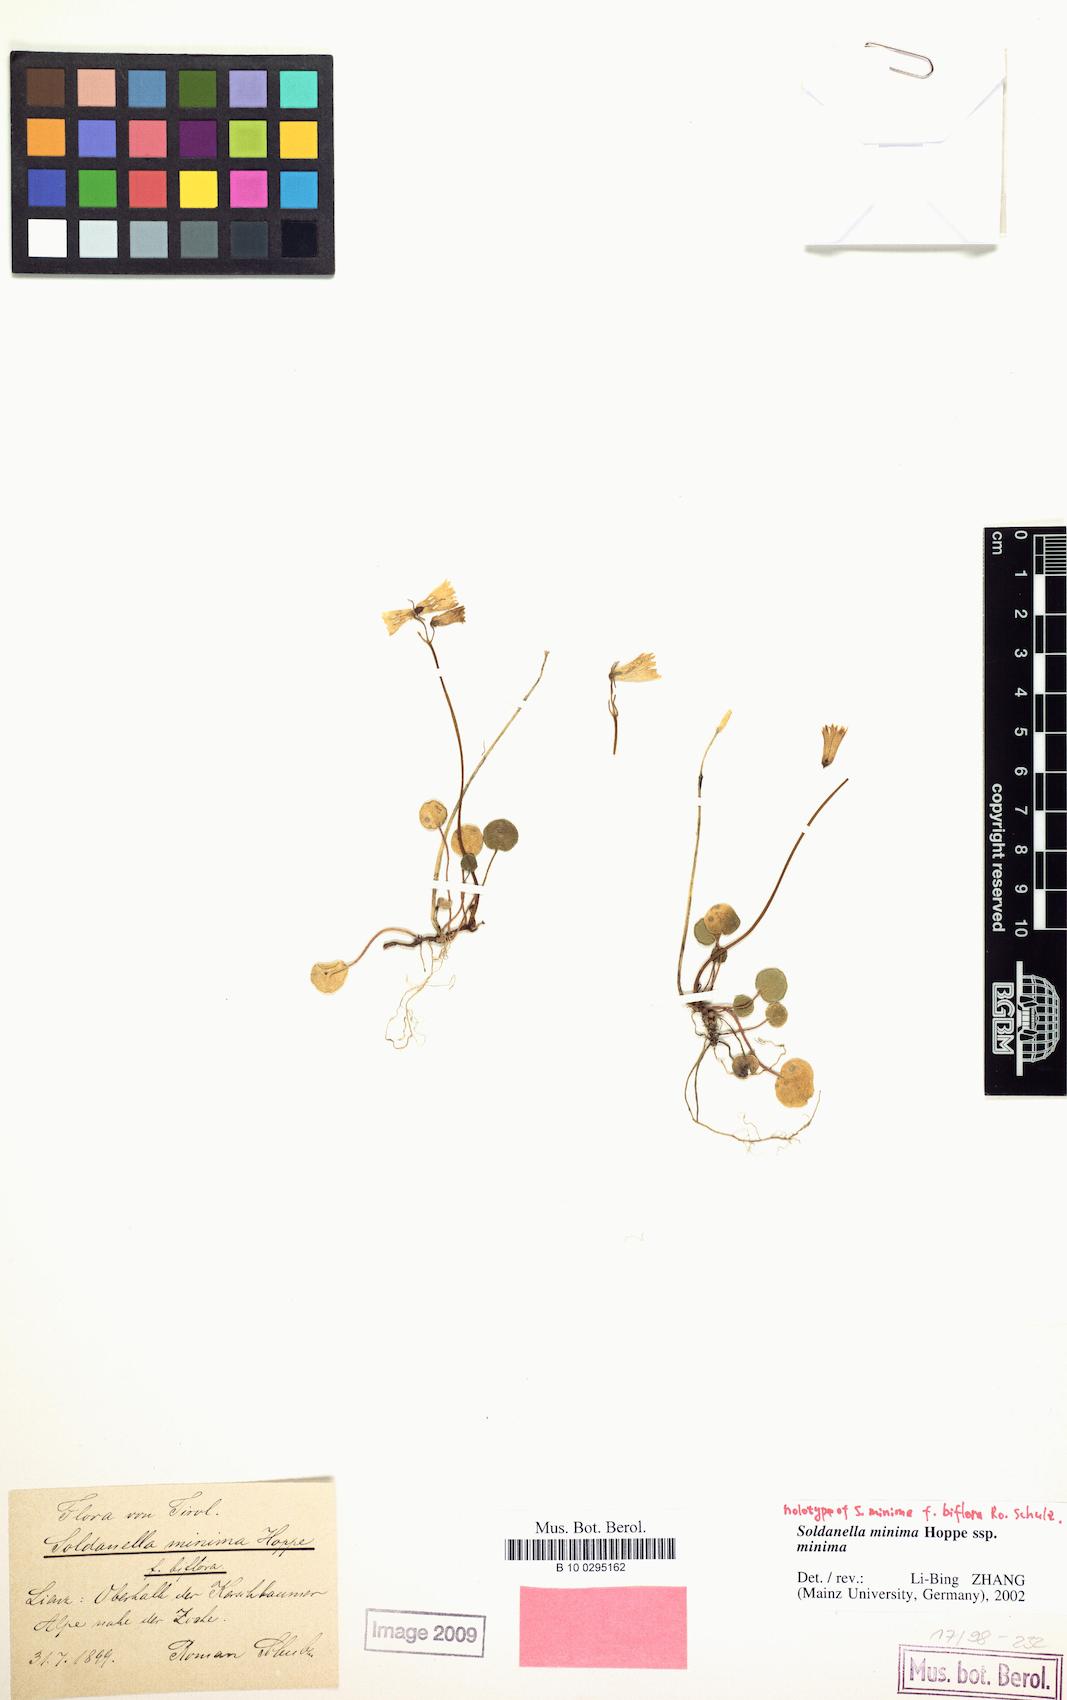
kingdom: Plantae
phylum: Tracheophyta
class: Magnoliopsida
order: Ericales
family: Primulaceae
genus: Soldanella
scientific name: Soldanella minima
